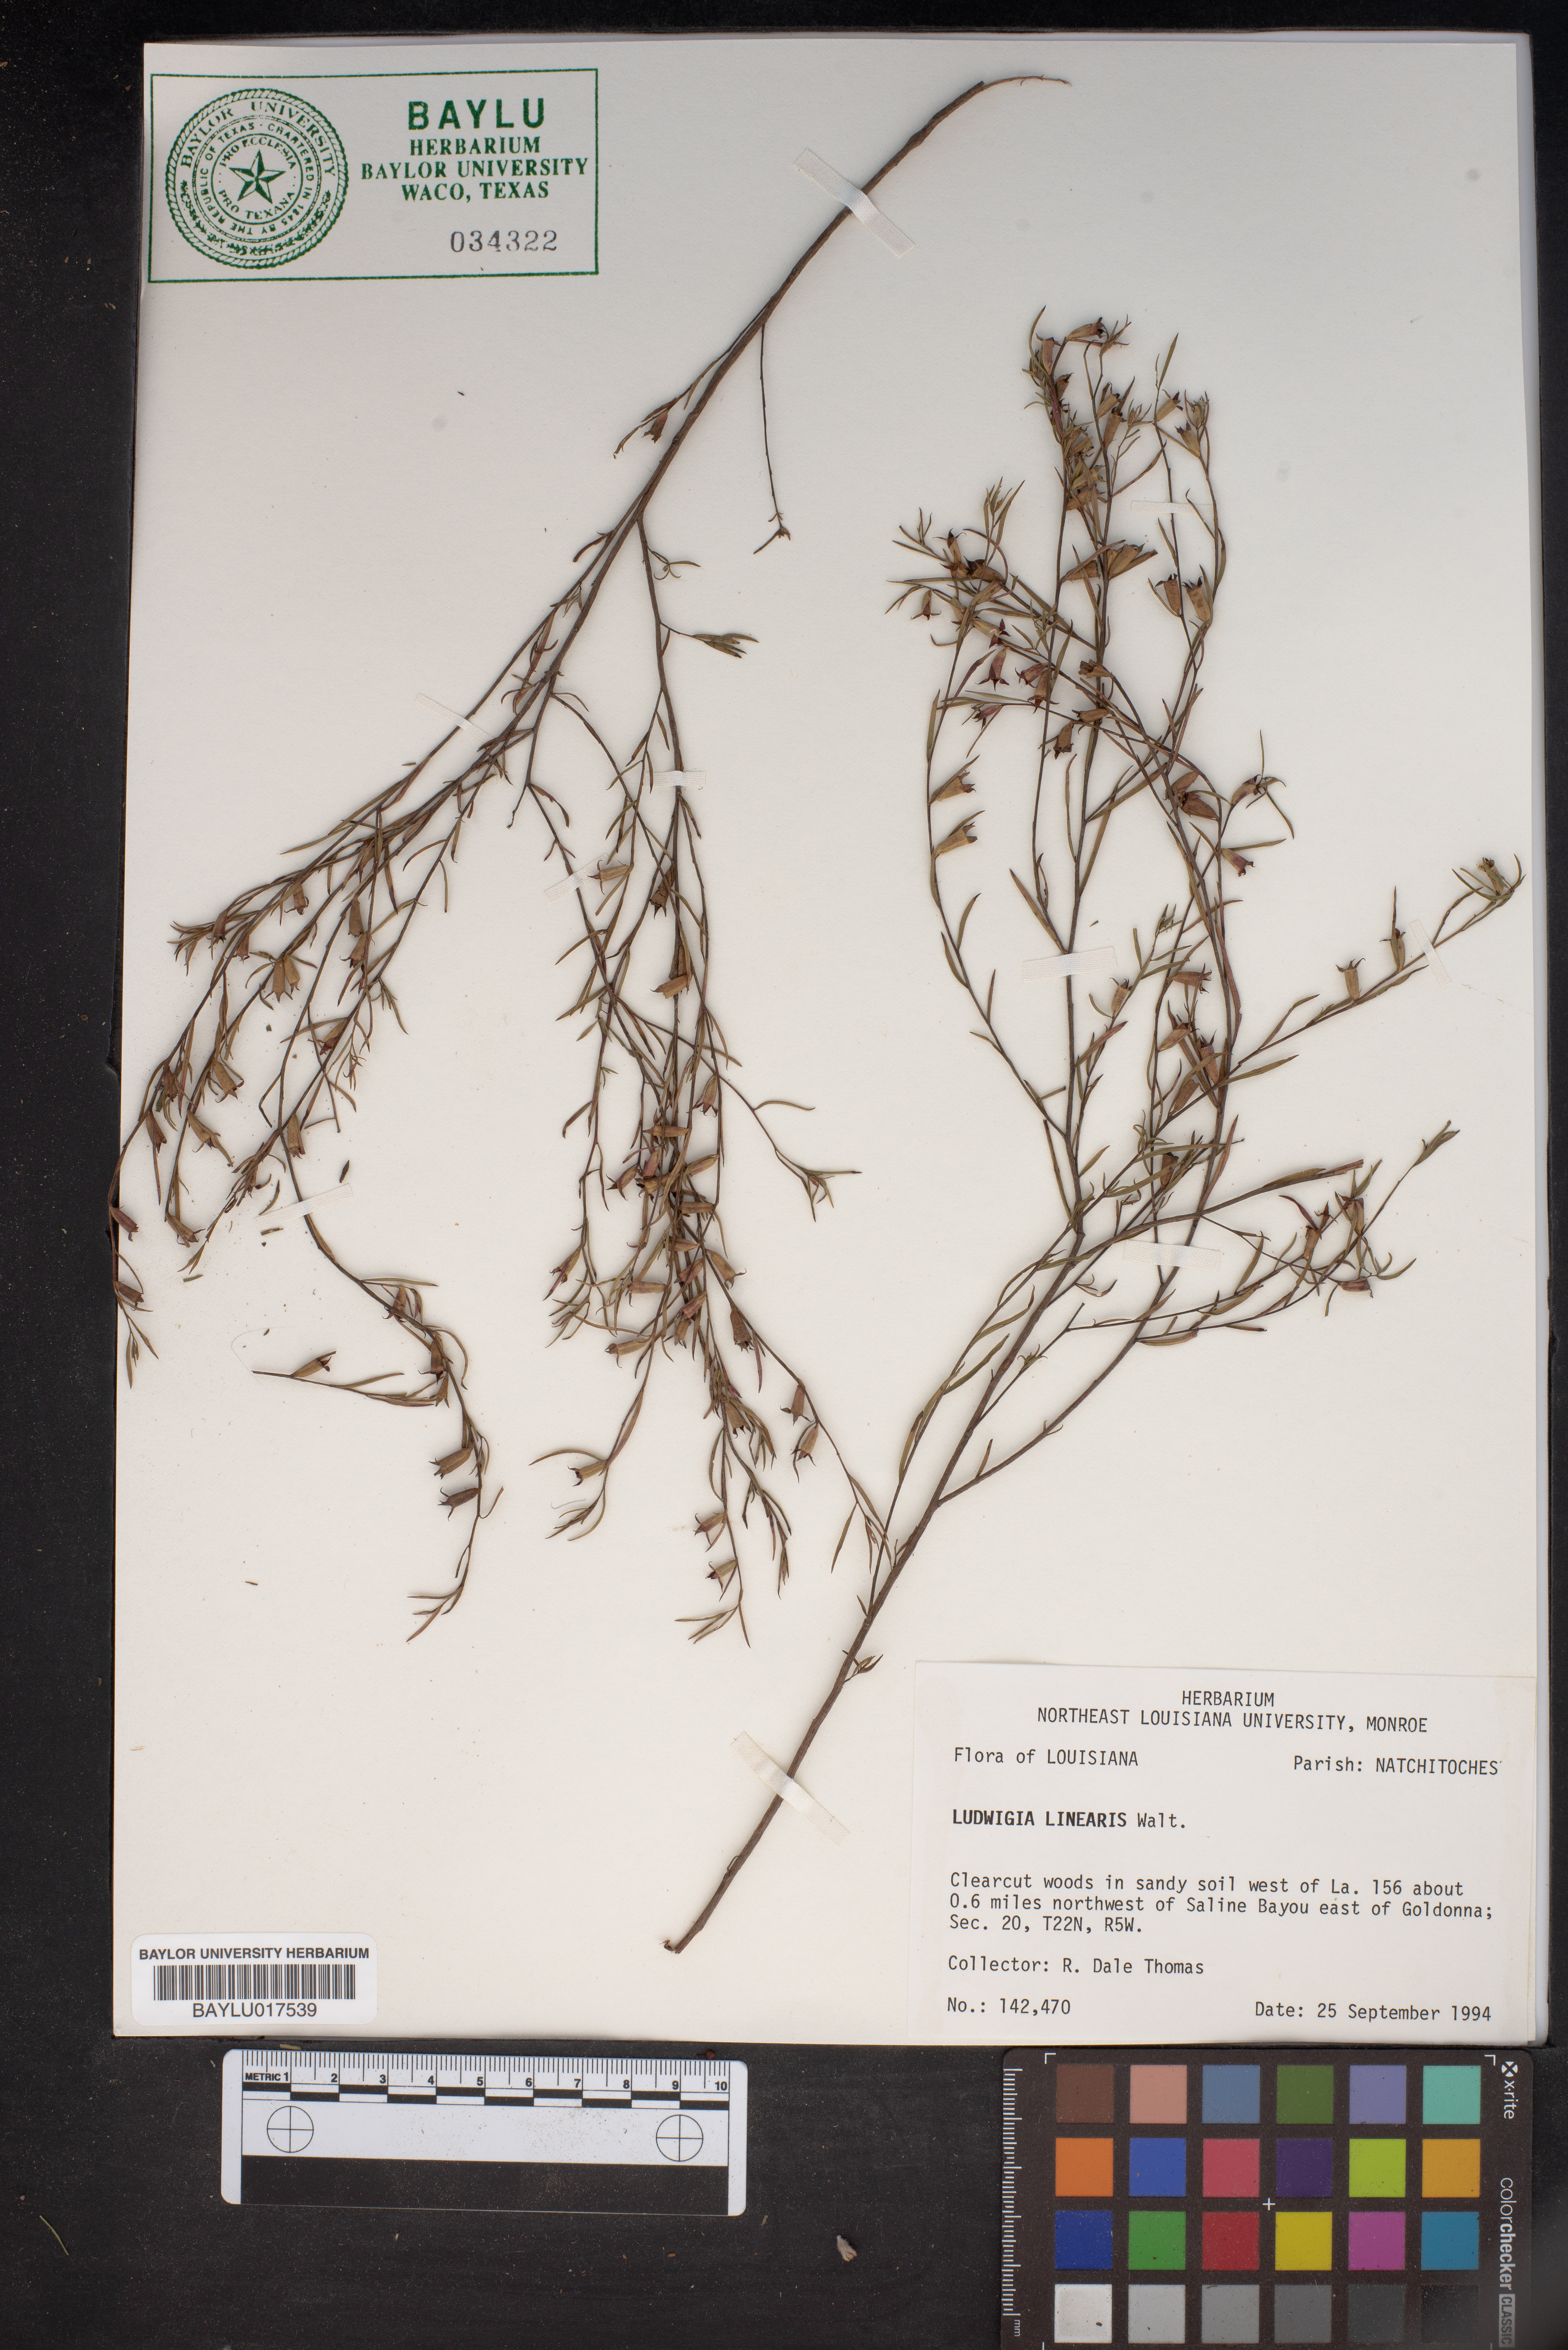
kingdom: Plantae
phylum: Tracheophyta
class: Magnoliopsida
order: Myrtales
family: Onagraceae
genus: Ludwigia
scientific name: Ludwigia linearis
